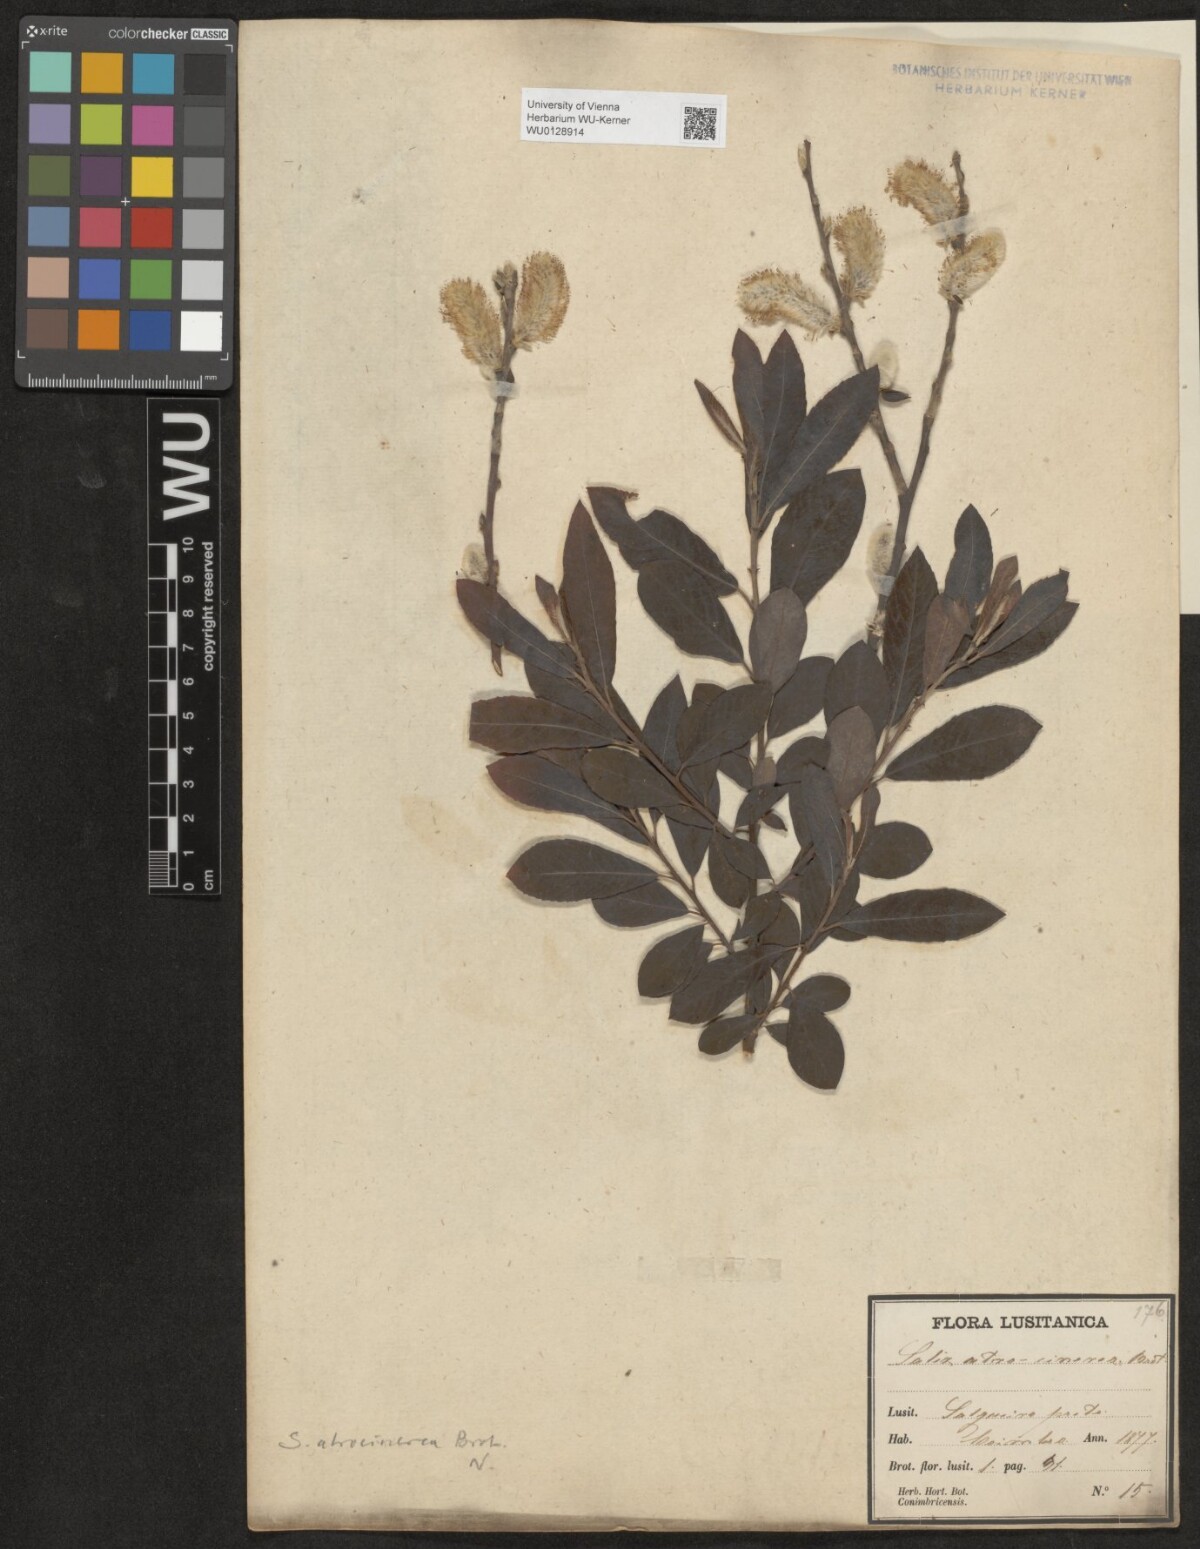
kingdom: Plantae
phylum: Tracheophyta
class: Magnoliopsida
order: Malpighiales
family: Salicaceae
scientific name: Salicaceae
